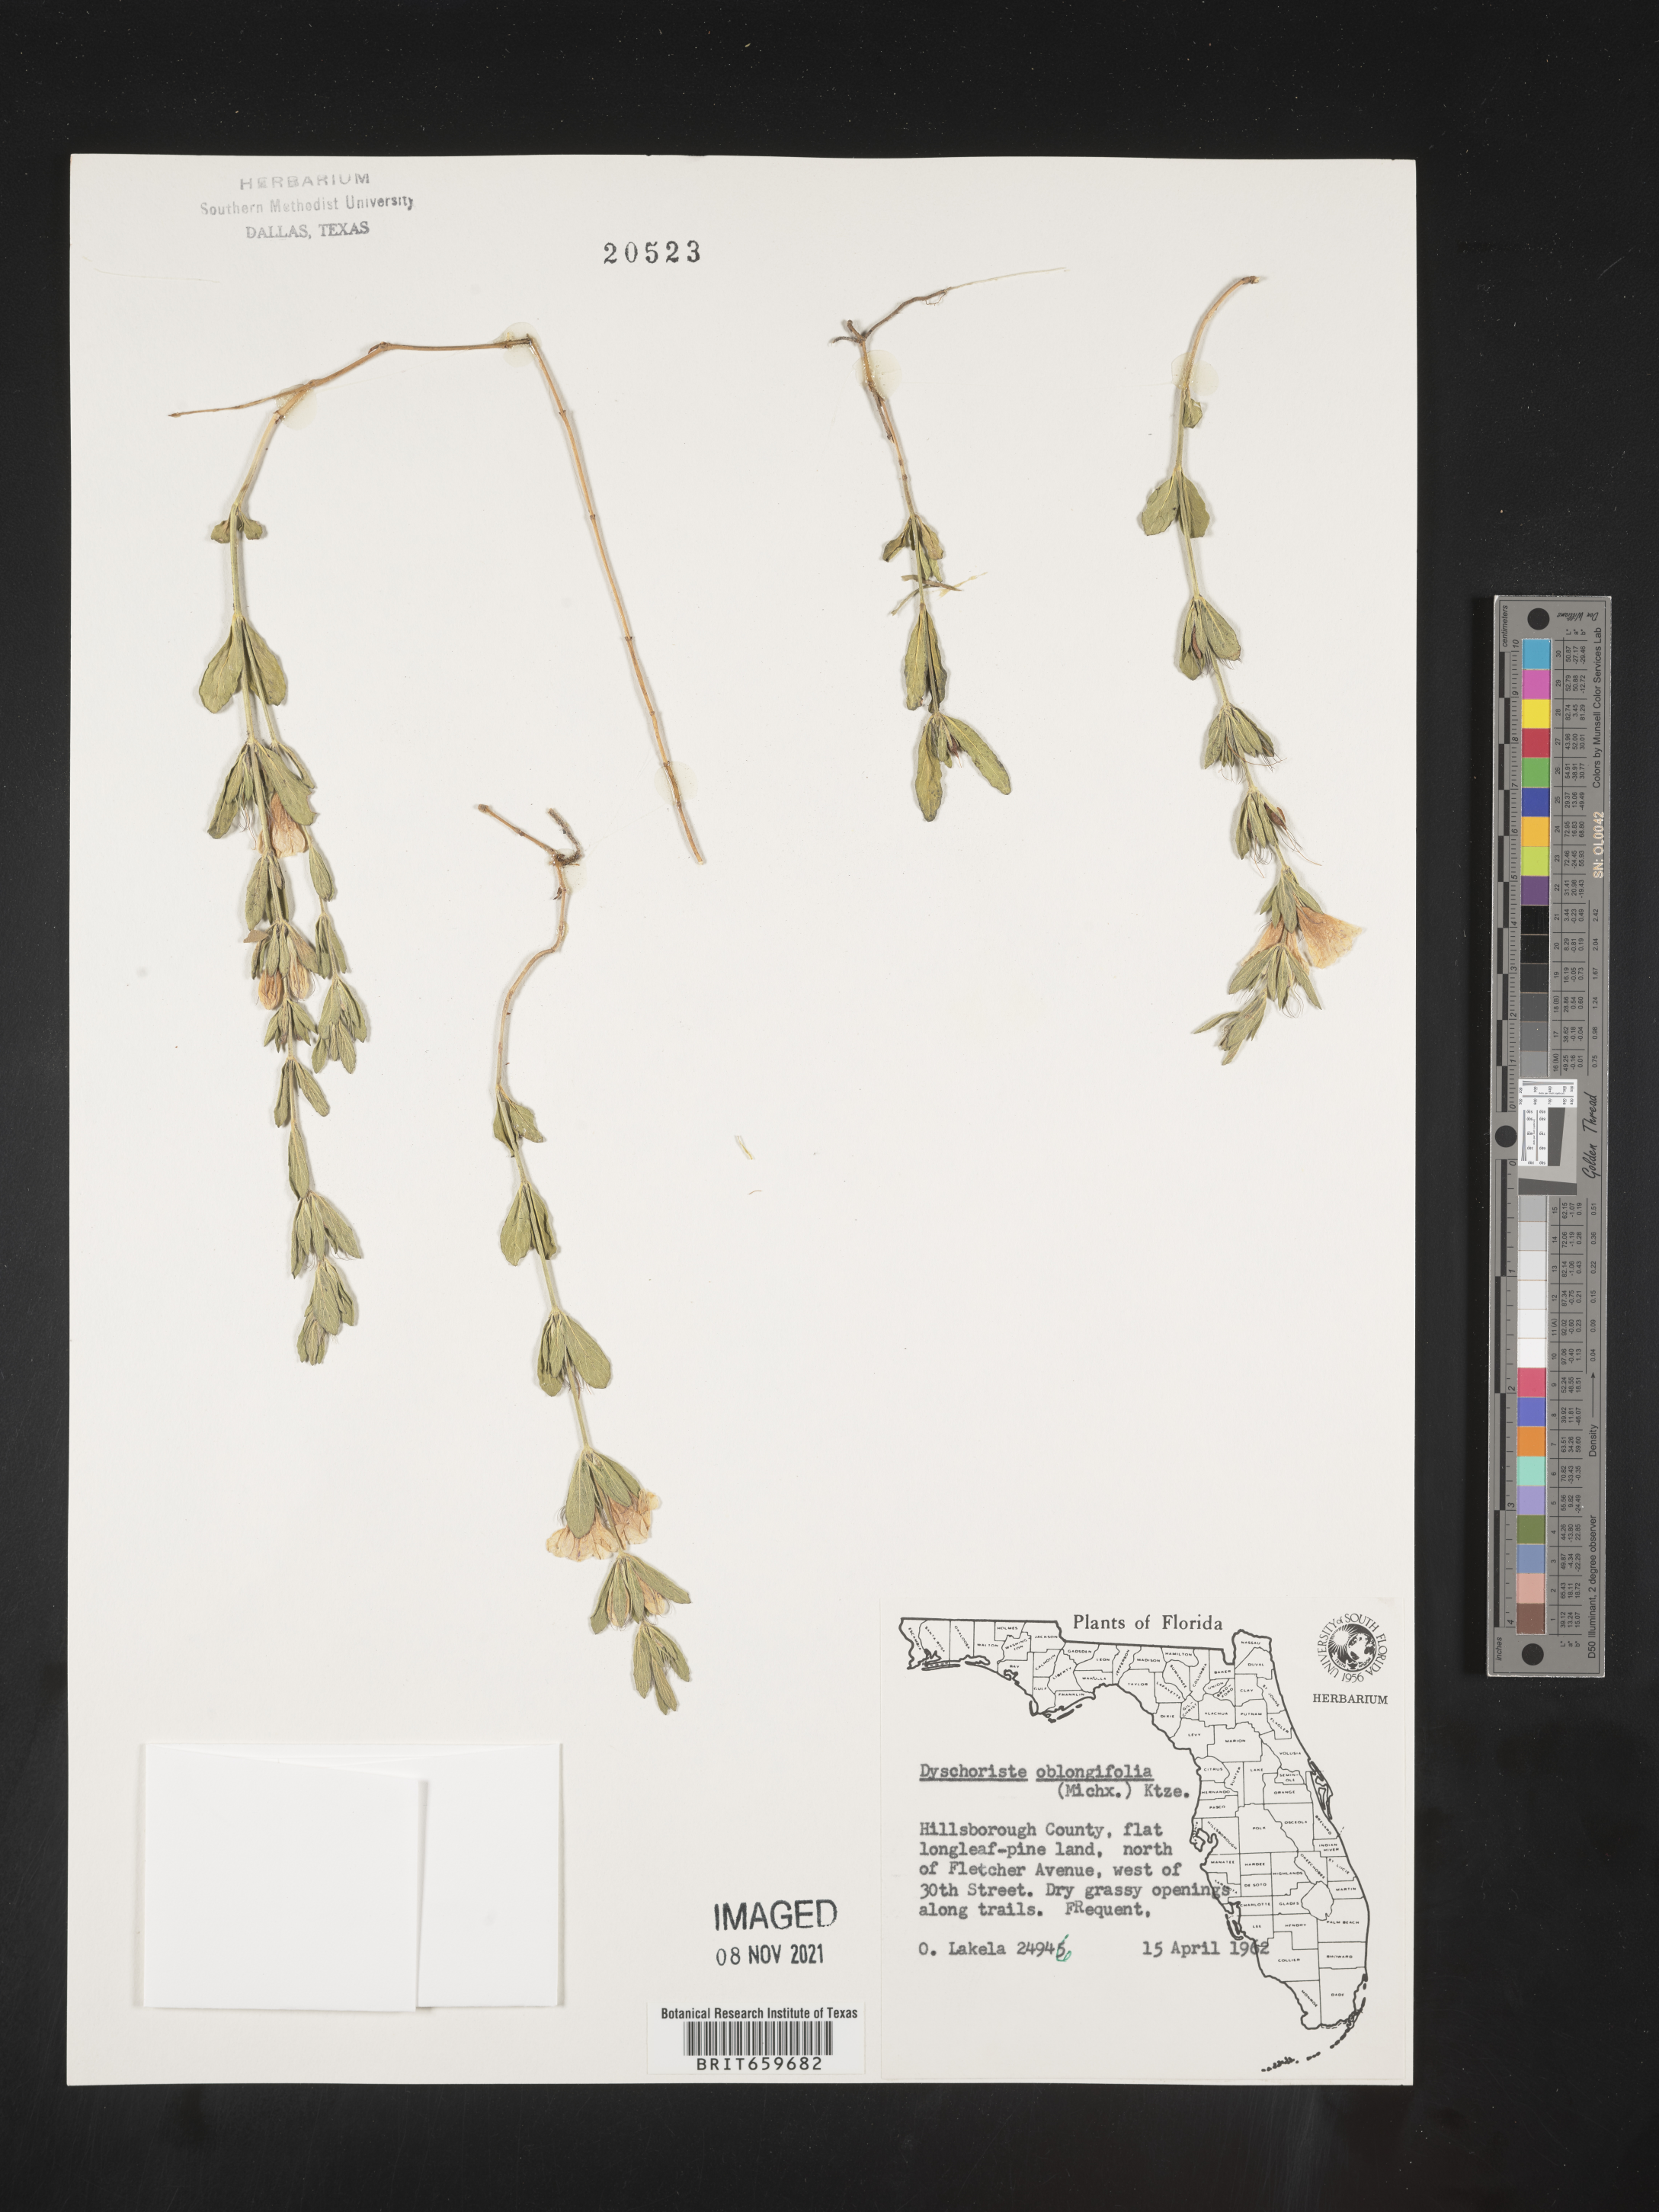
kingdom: Plantae
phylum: Tracheophyta
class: Magnoliopsida
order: Lamiales
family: Acanthaceae
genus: Dyschoriste
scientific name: Dyschoriste oblongifolia
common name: Blue twinflower
